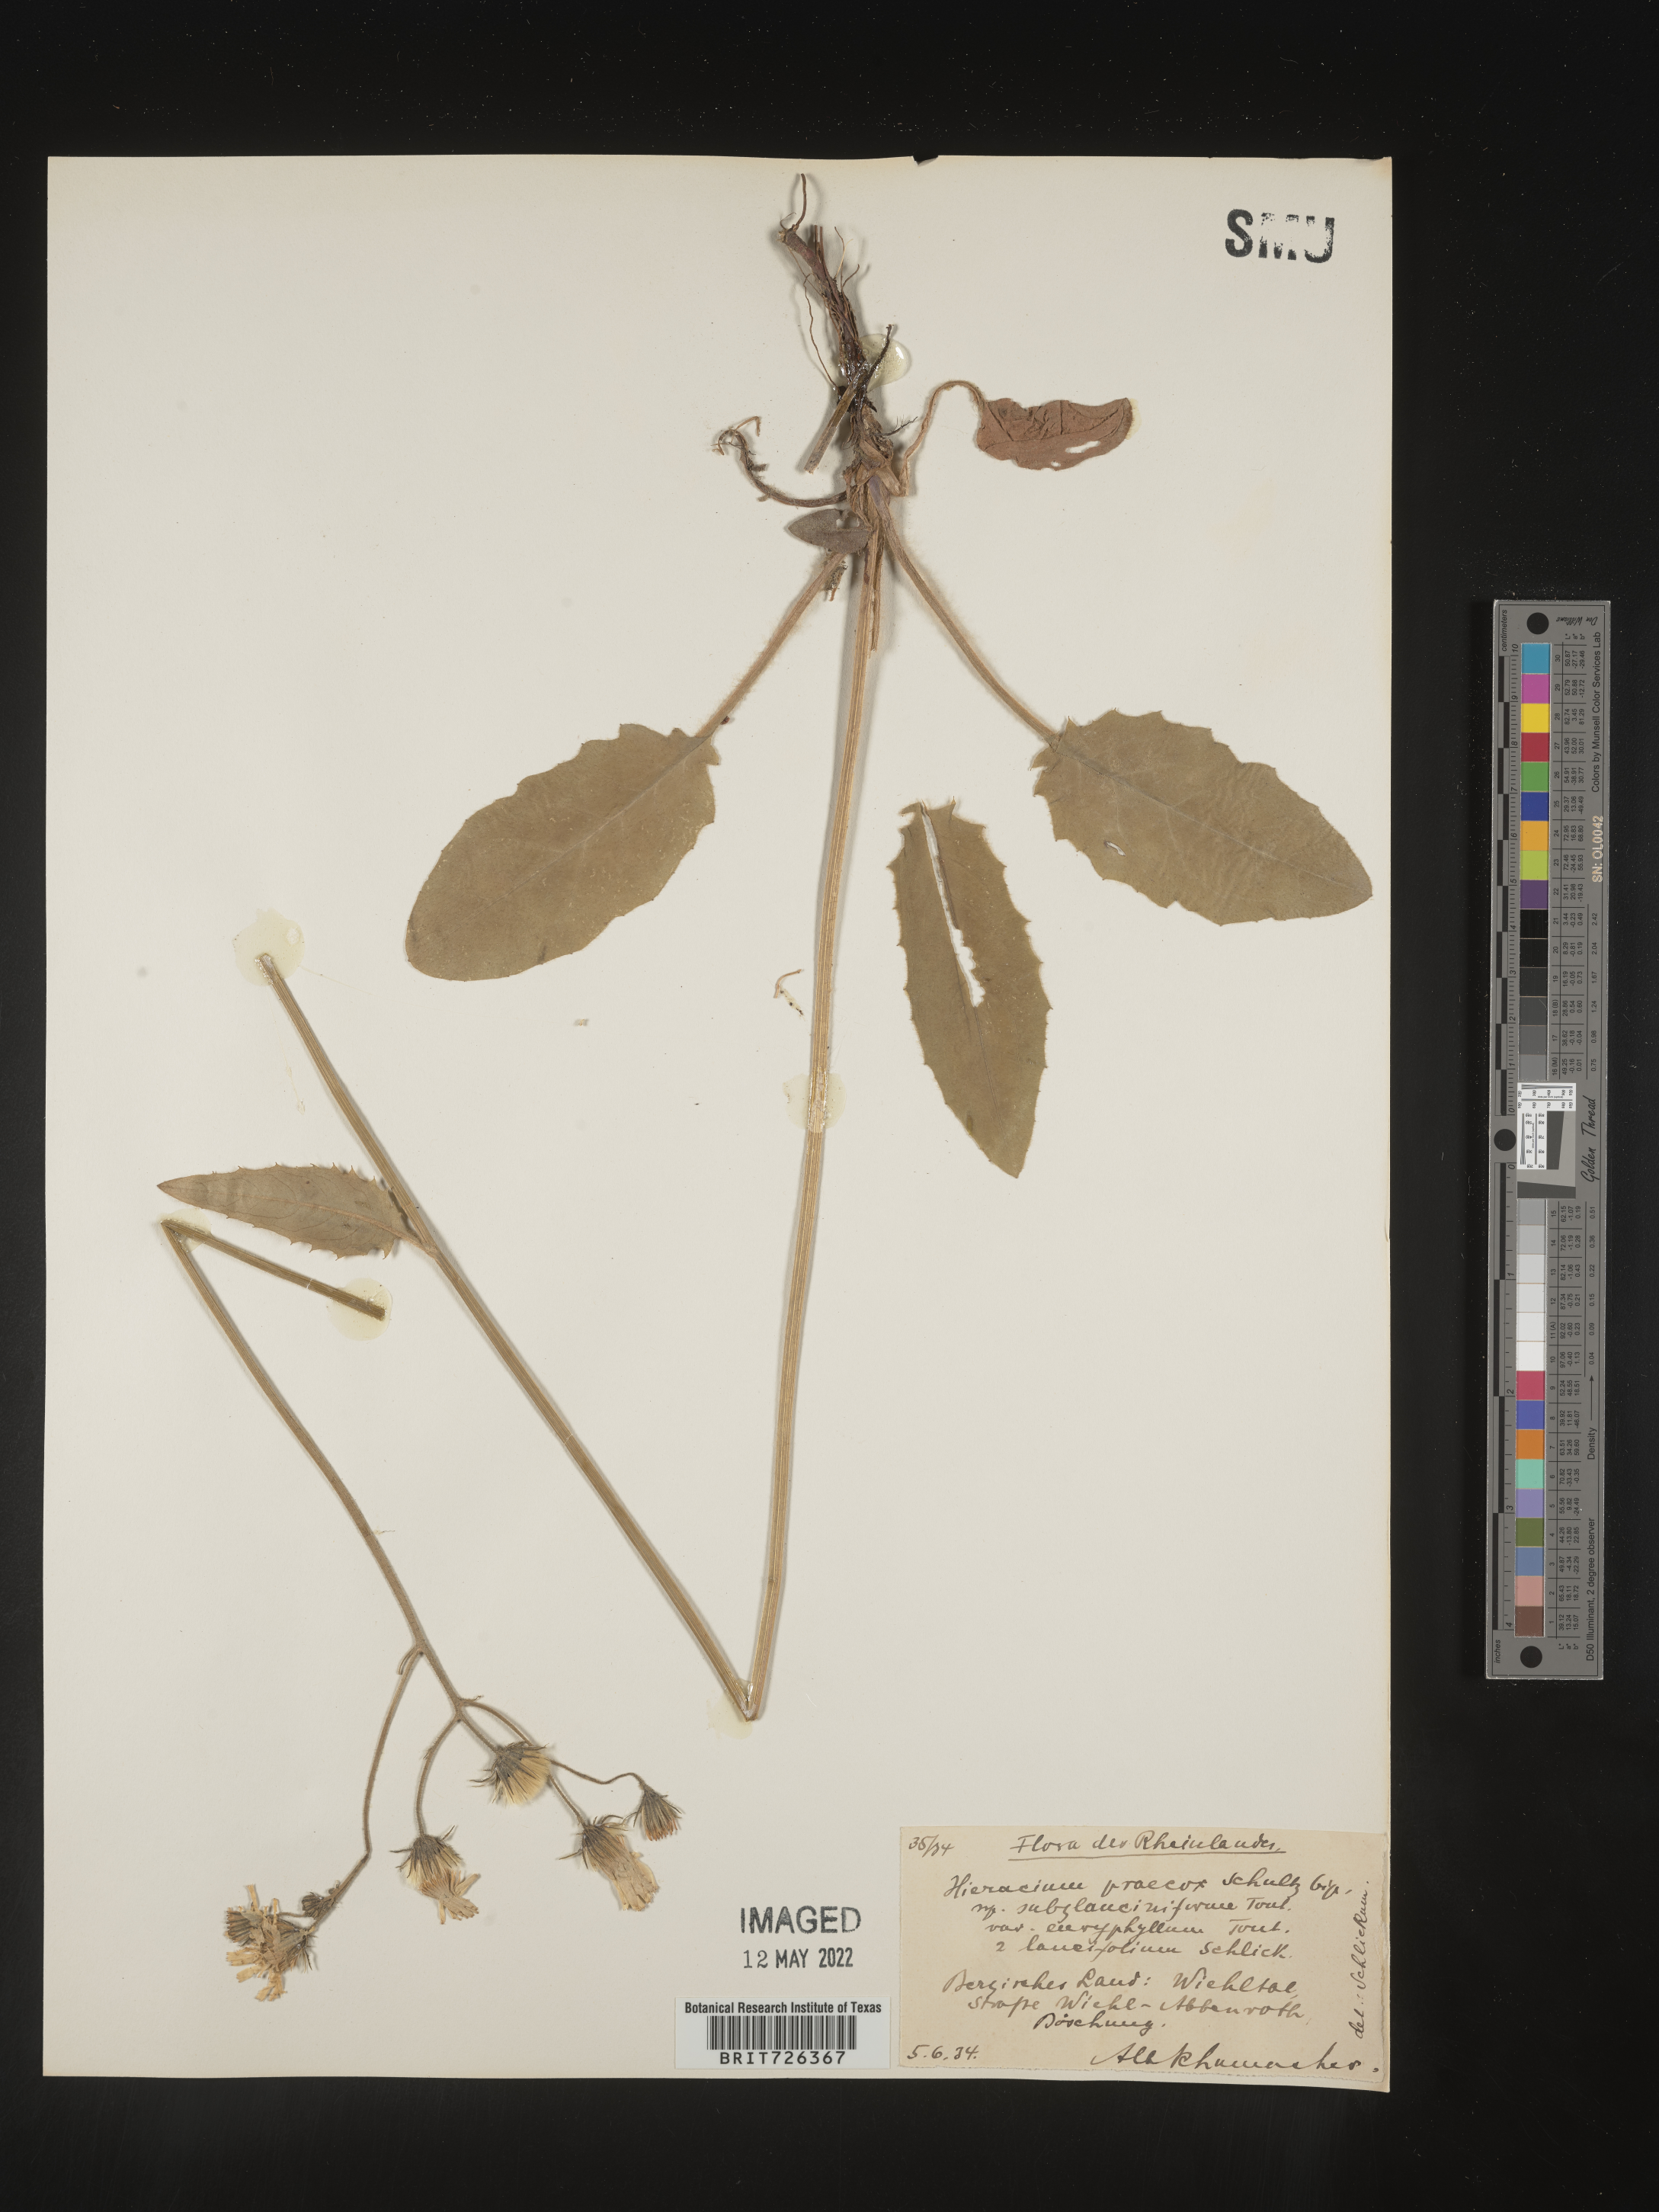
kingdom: Plantae
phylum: Tracheophyta
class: Magnoliopsida
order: Asterales
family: Asteraceae
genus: Hieracium
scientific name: Hieracium
